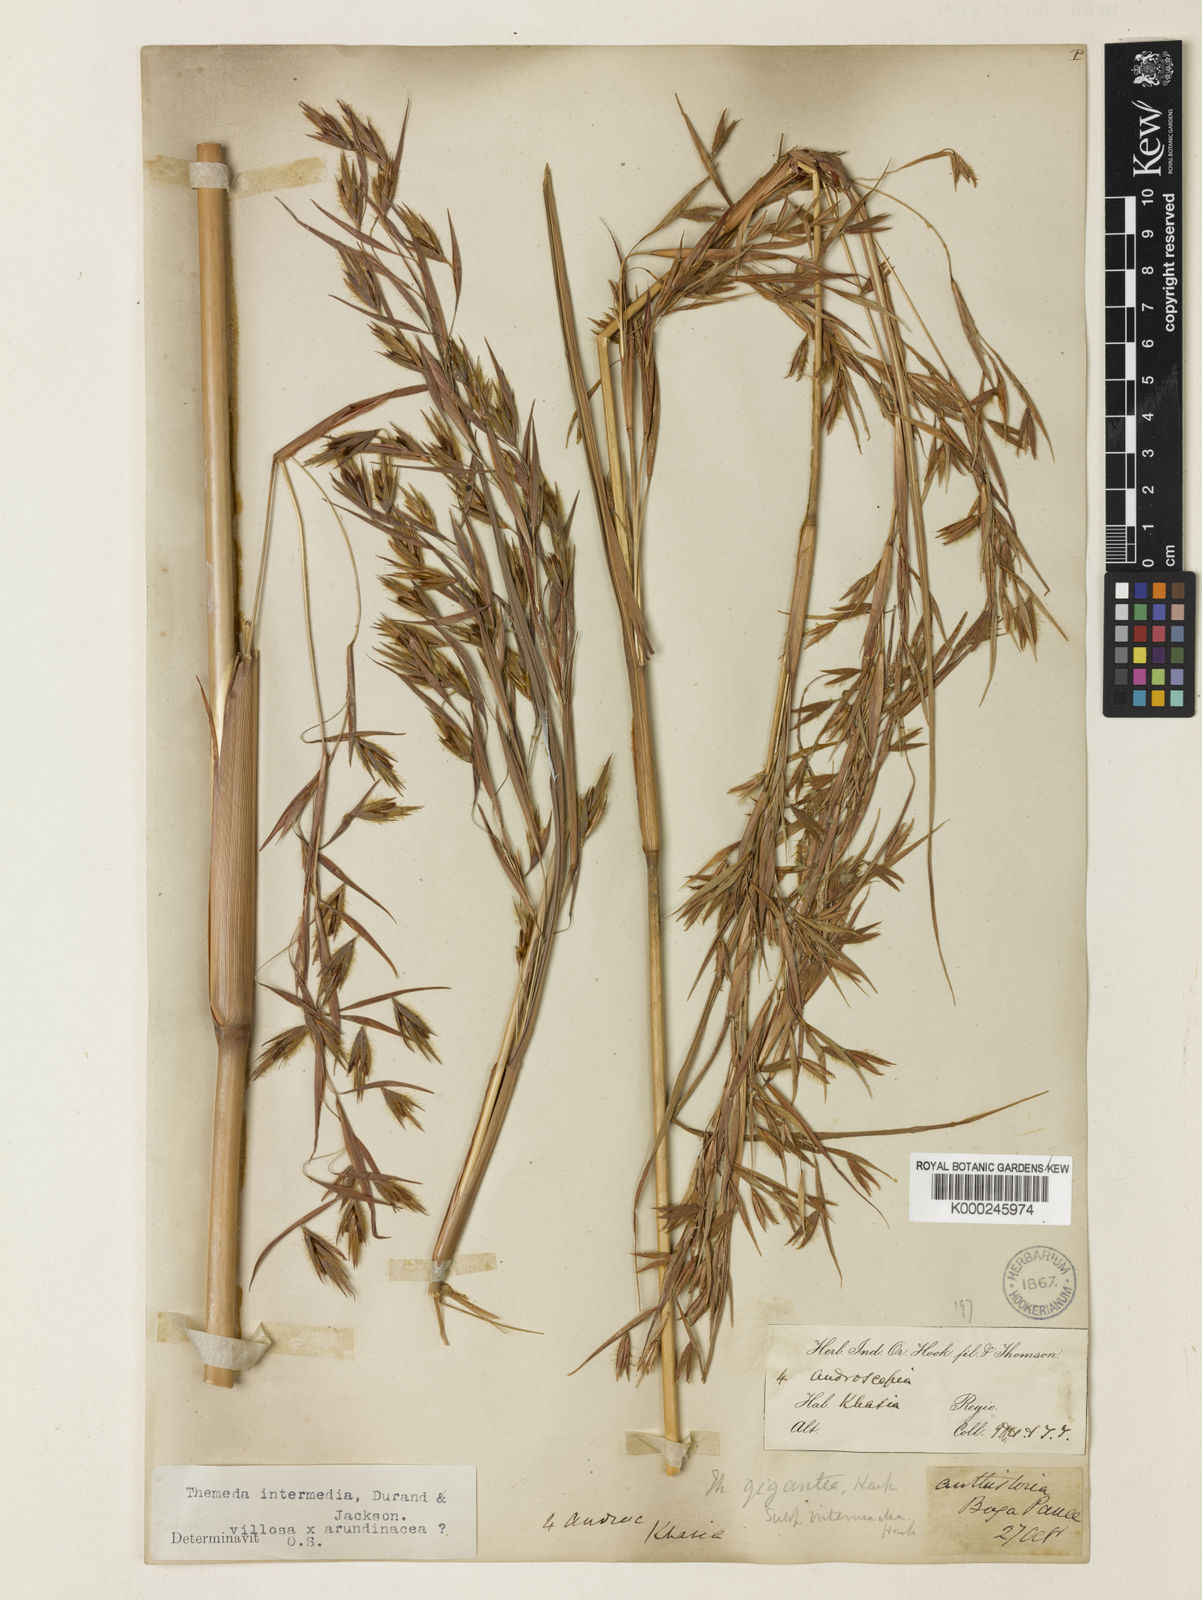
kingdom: Plantae
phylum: Tracheophyta
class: Liliopsida
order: Poales
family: Poaceae
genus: Themeda
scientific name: Themeda
